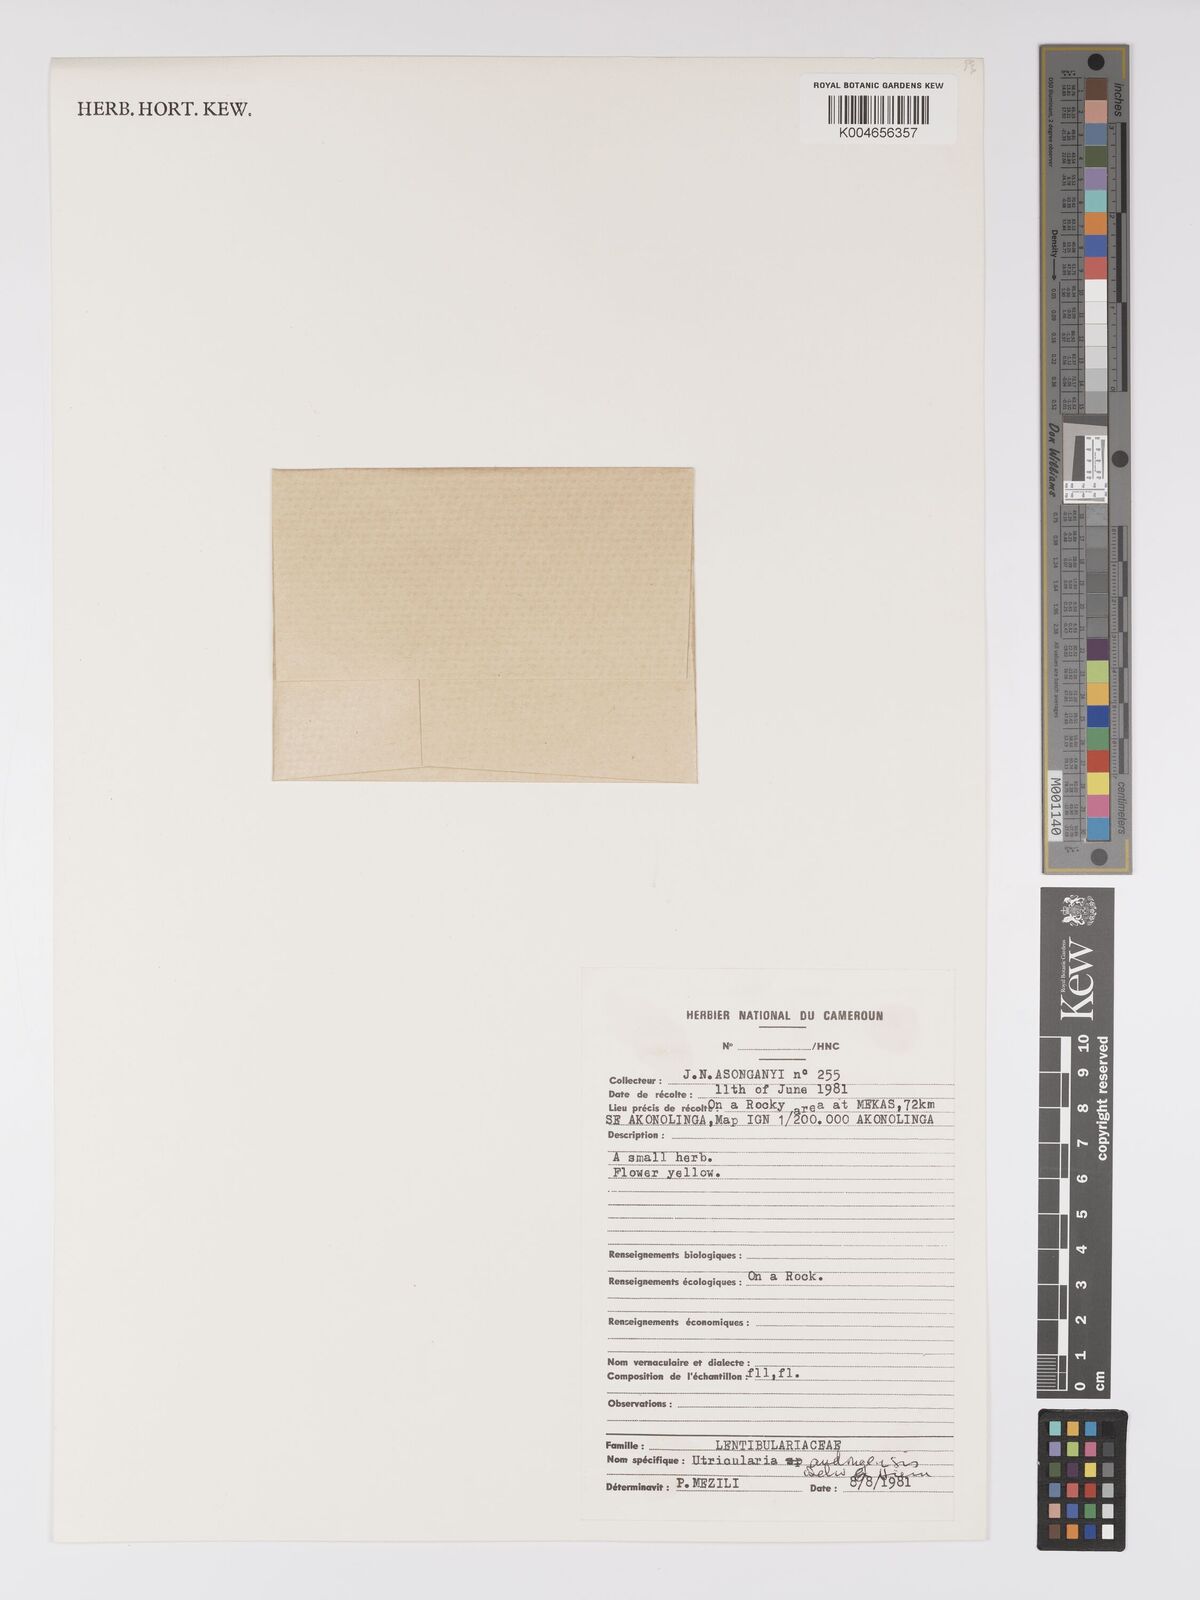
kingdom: Plantae
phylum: Tracheophyta
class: Magnoliopsida
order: Lamiales
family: Lentibulariaceae
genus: Utricularia
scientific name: Utricularia andongensis
